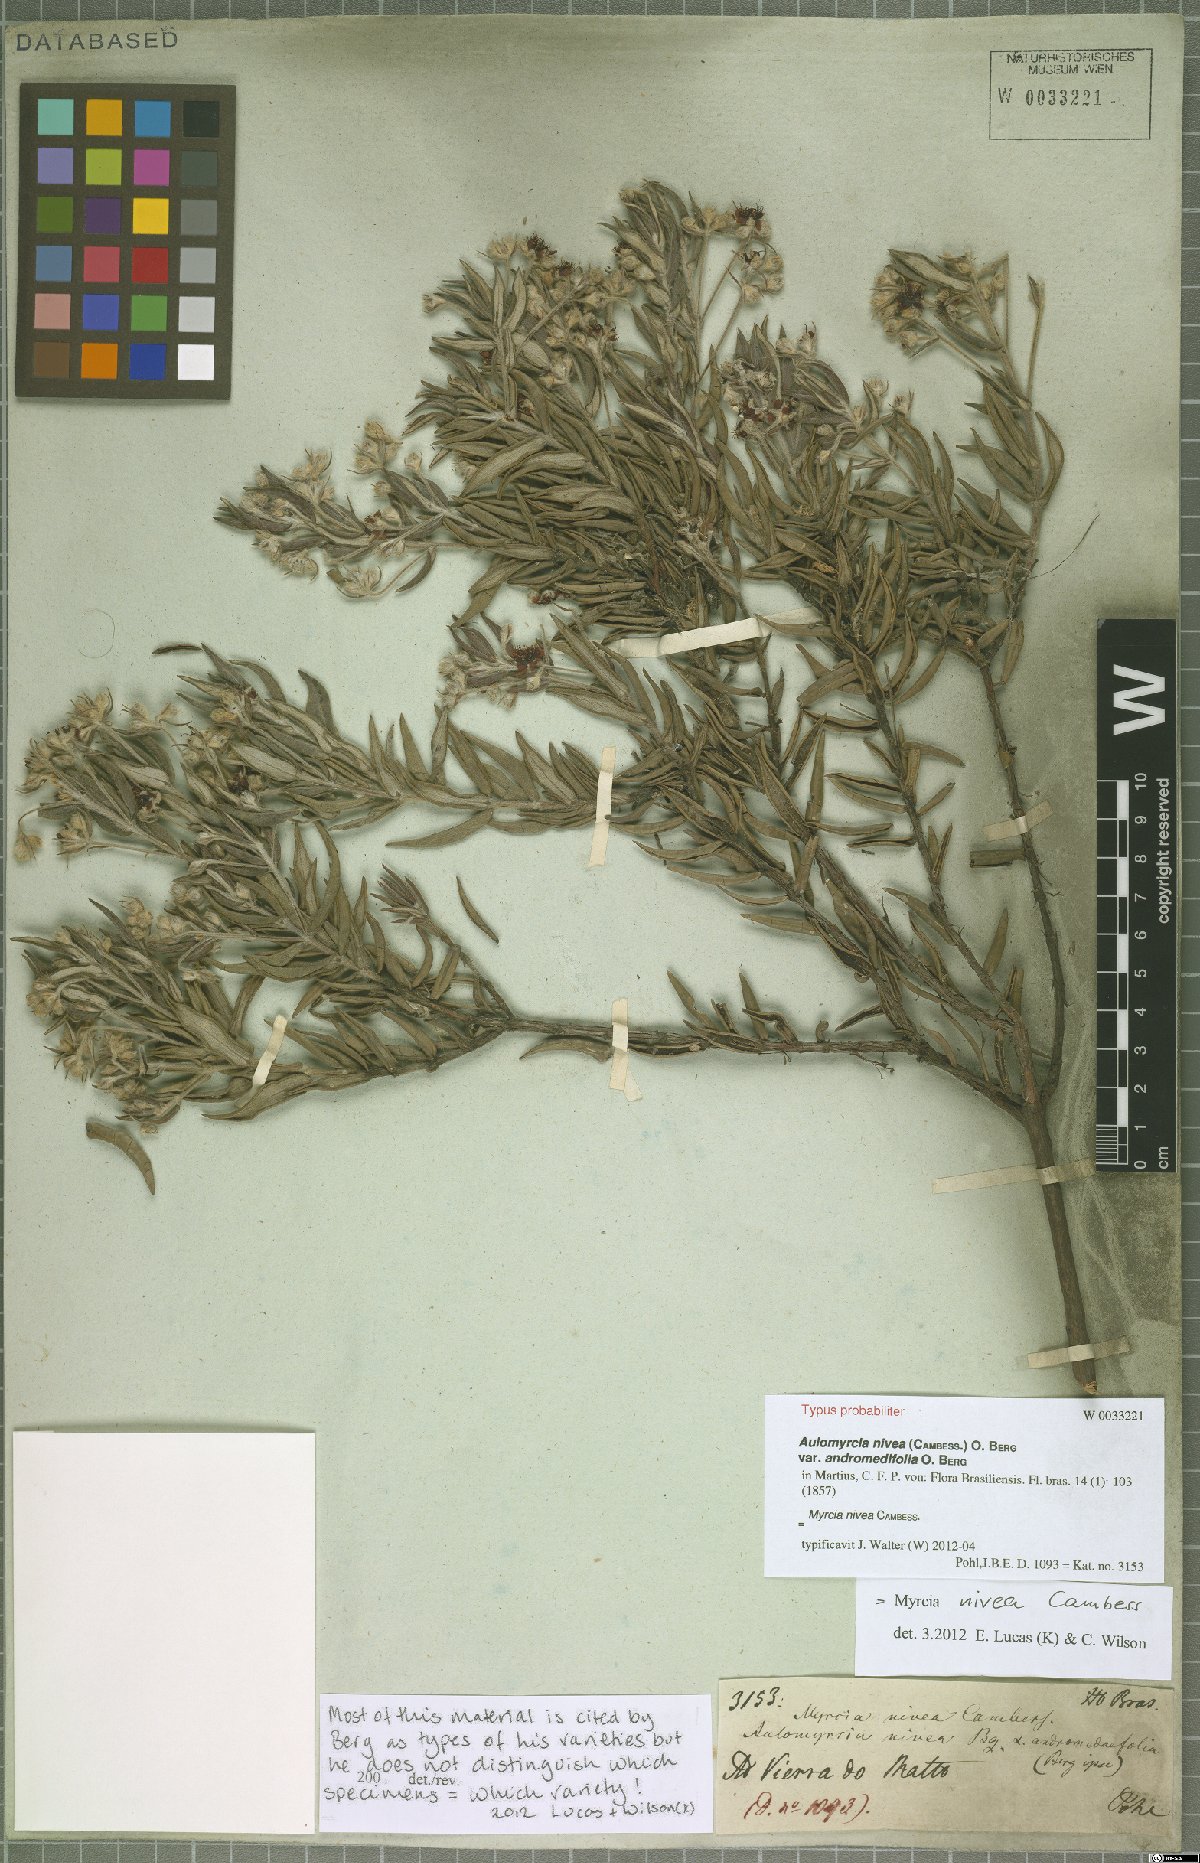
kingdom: Plantae
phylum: Tracheophyta
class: Magnoliopsida
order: Myrtales
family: Myrtaceae
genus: Myrcia
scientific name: Myrcia nivea
